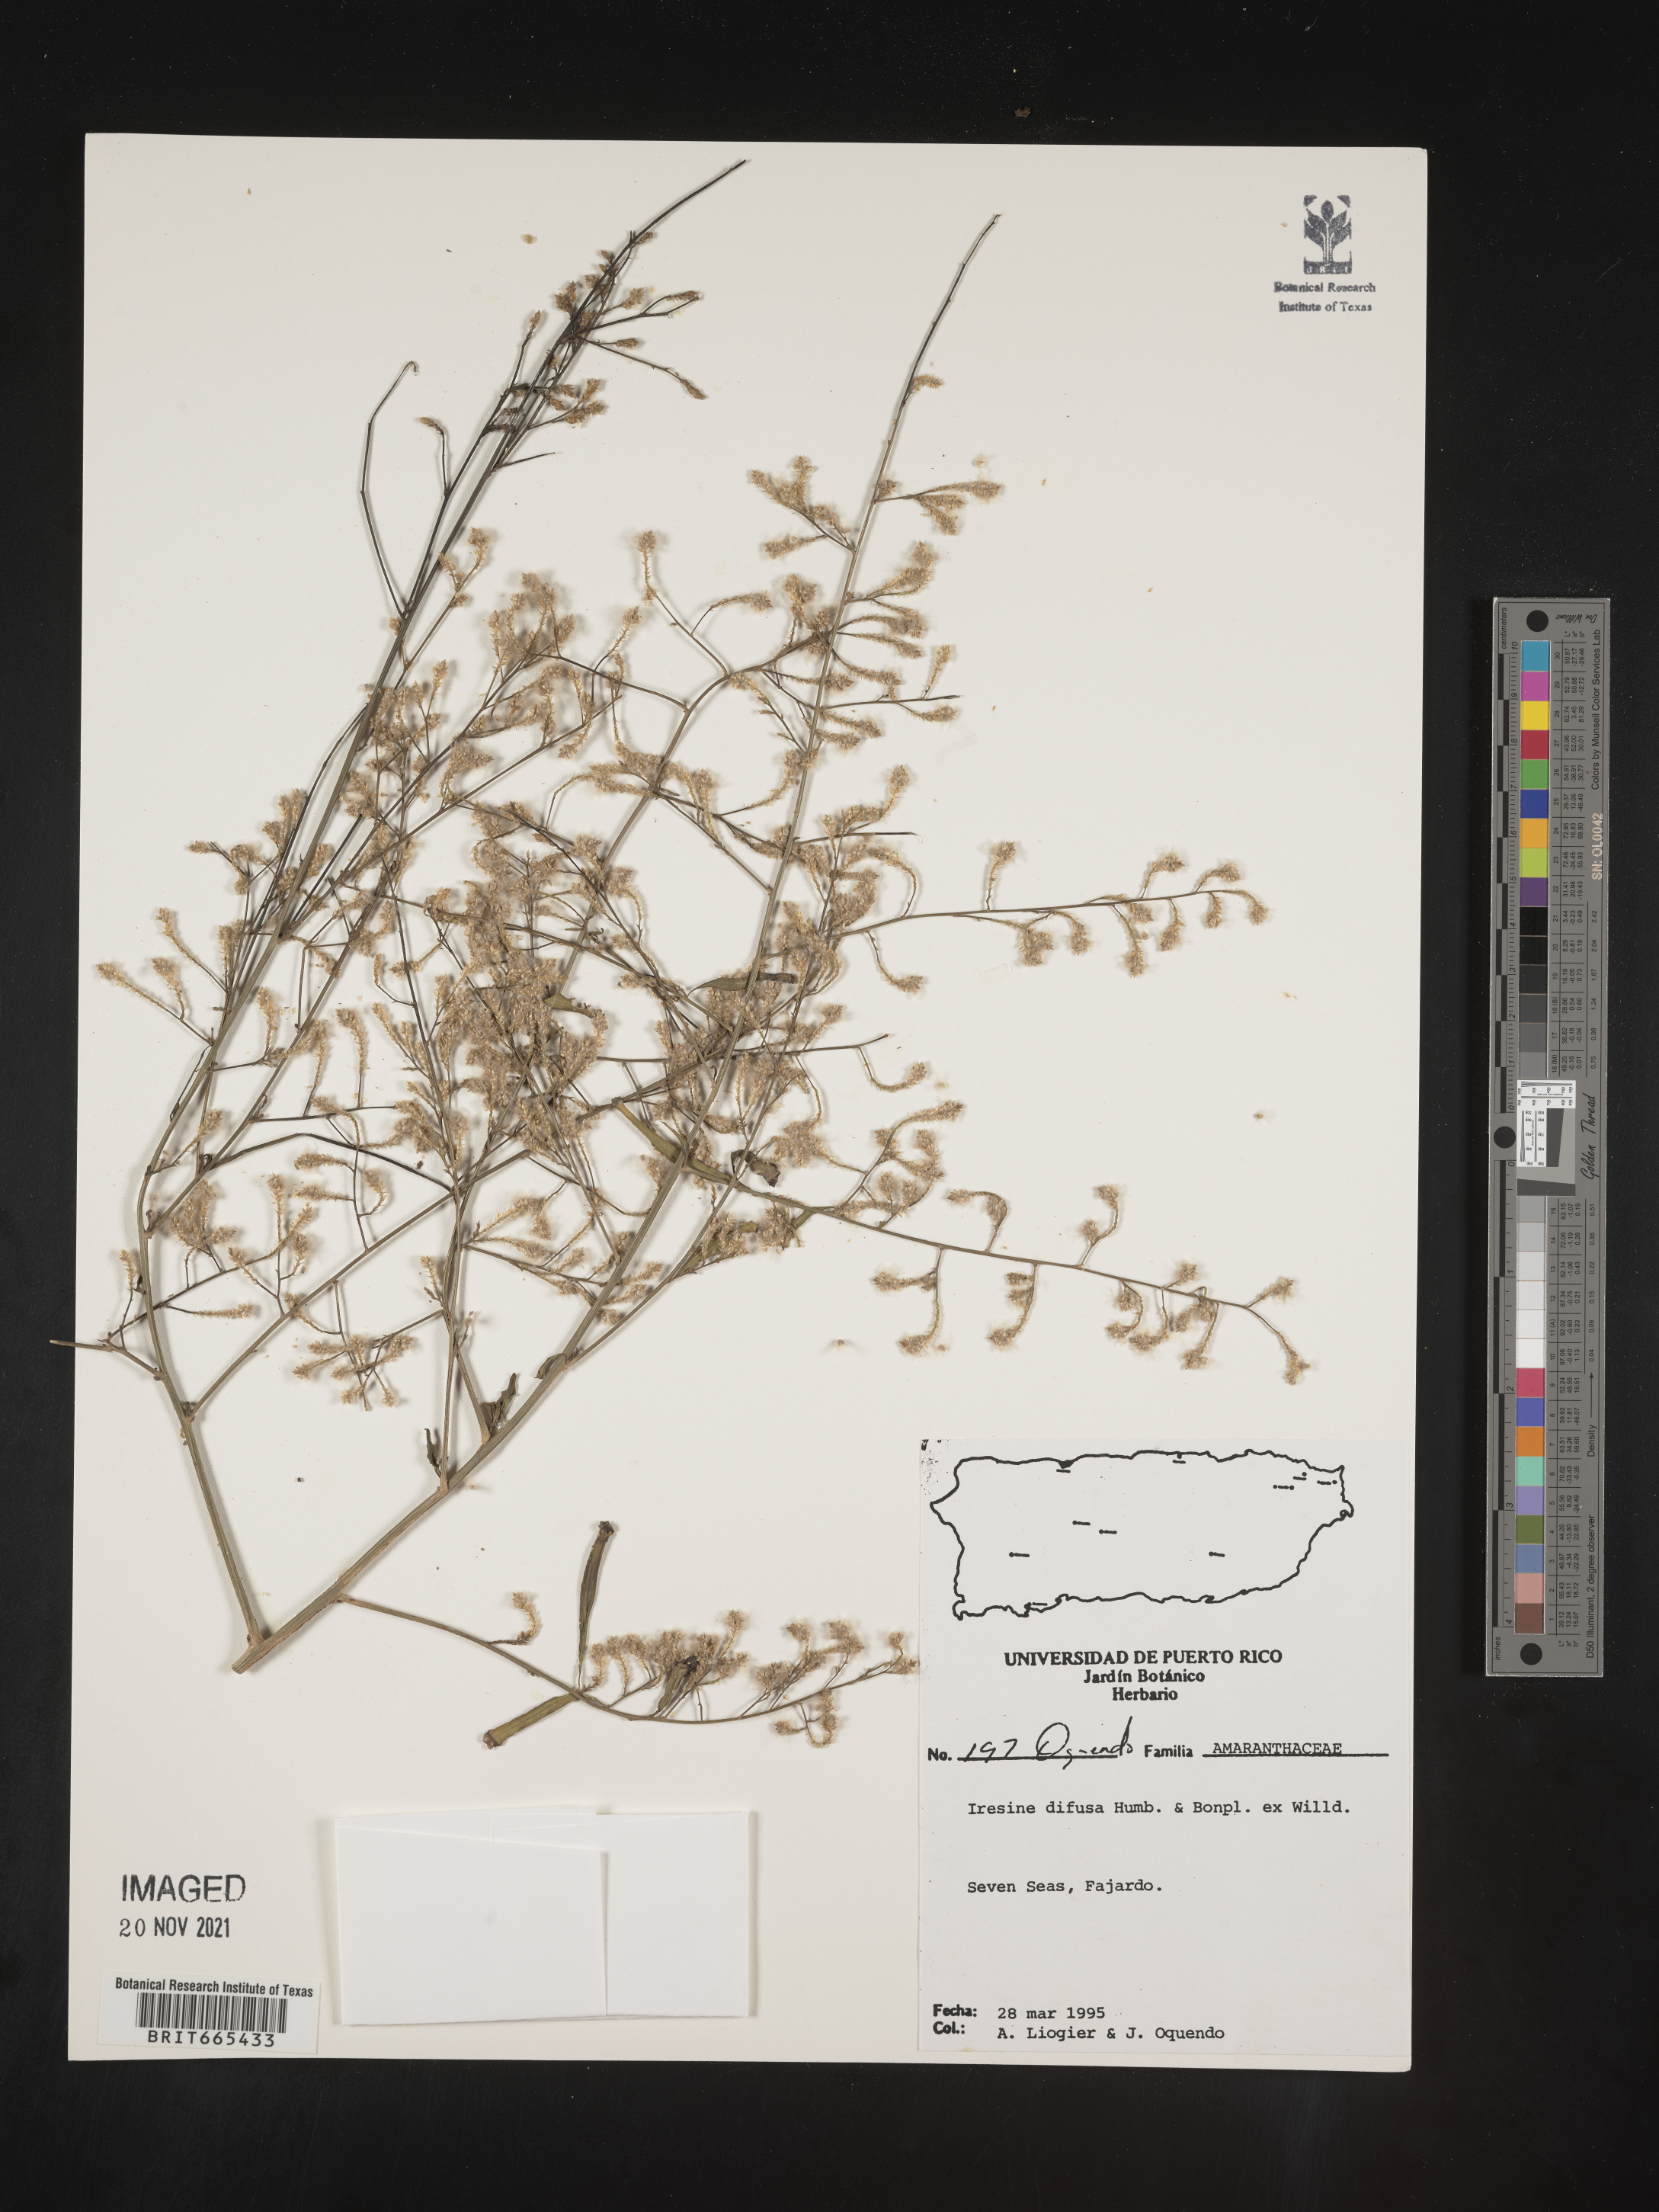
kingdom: Plantae
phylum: Tracheophyta
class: Magnoliopsida
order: Caryophyllales
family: Amaranthaceae
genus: Iresine
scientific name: Iresine
